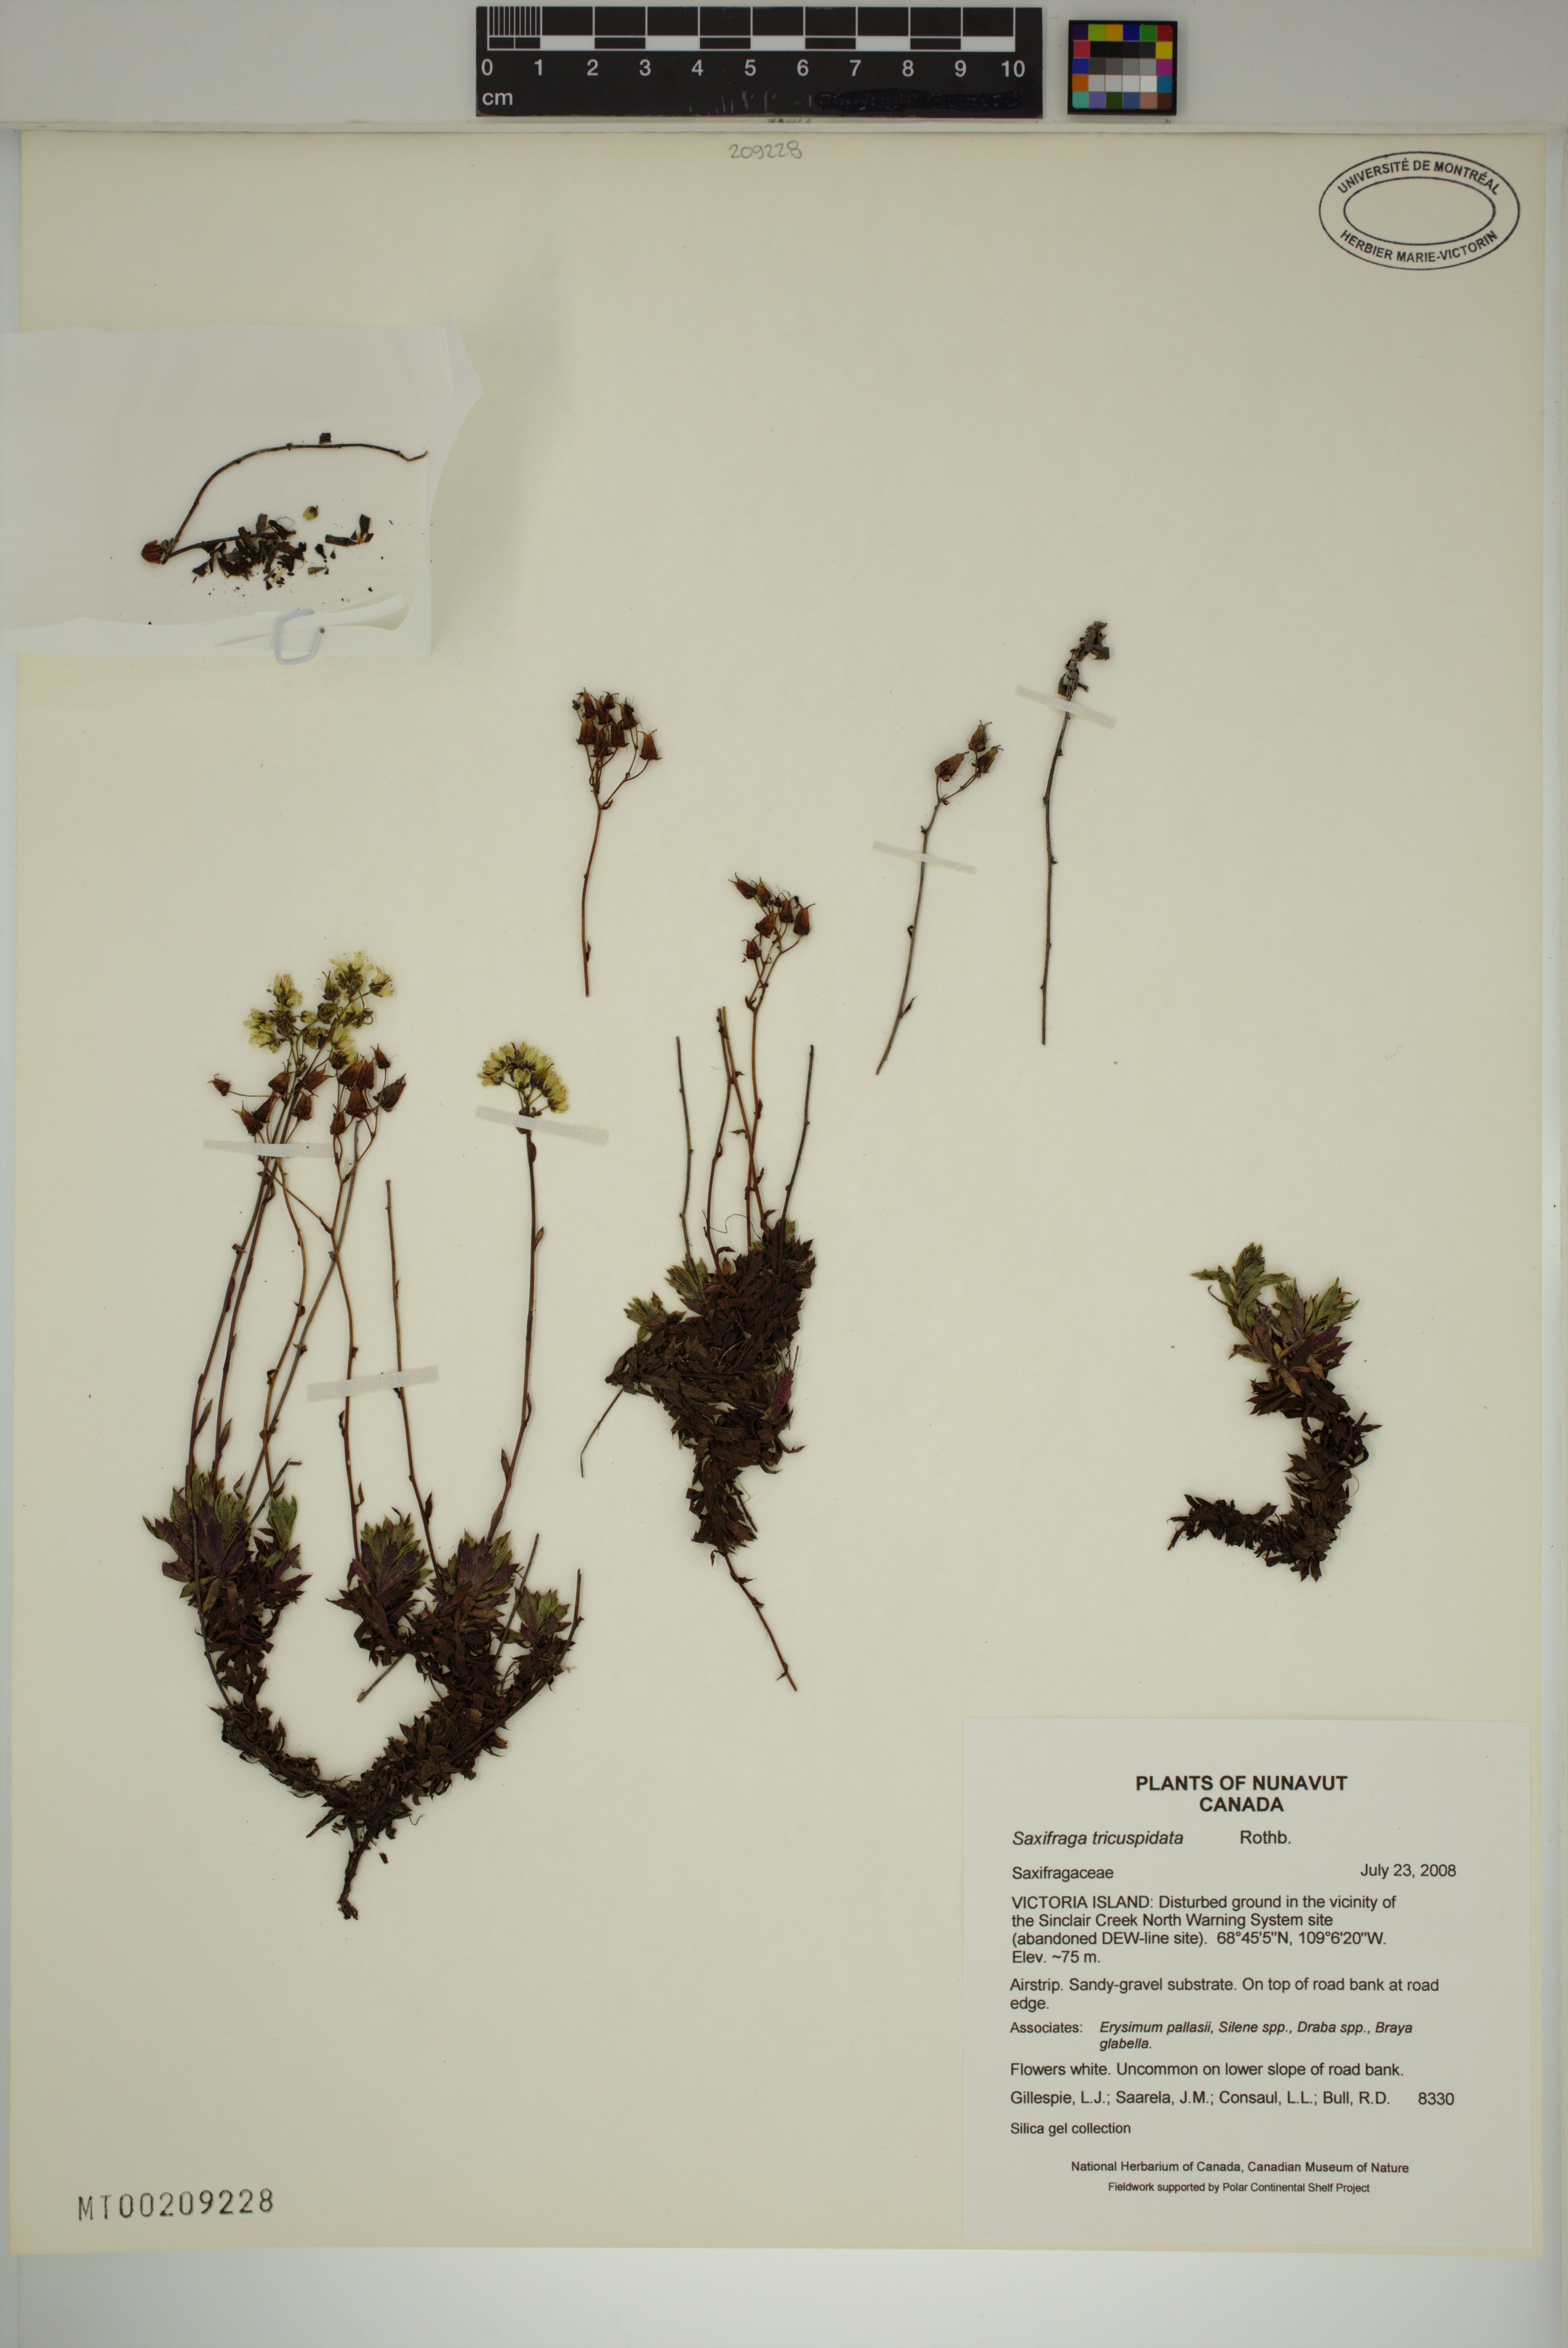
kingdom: Plantae
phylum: Tracheophyta
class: Magnoliopsida
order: Saxifragales
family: Saxifragaceae
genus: Saxifraga
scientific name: Saxifraga tricuspidata
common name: Prickly saxifrage
